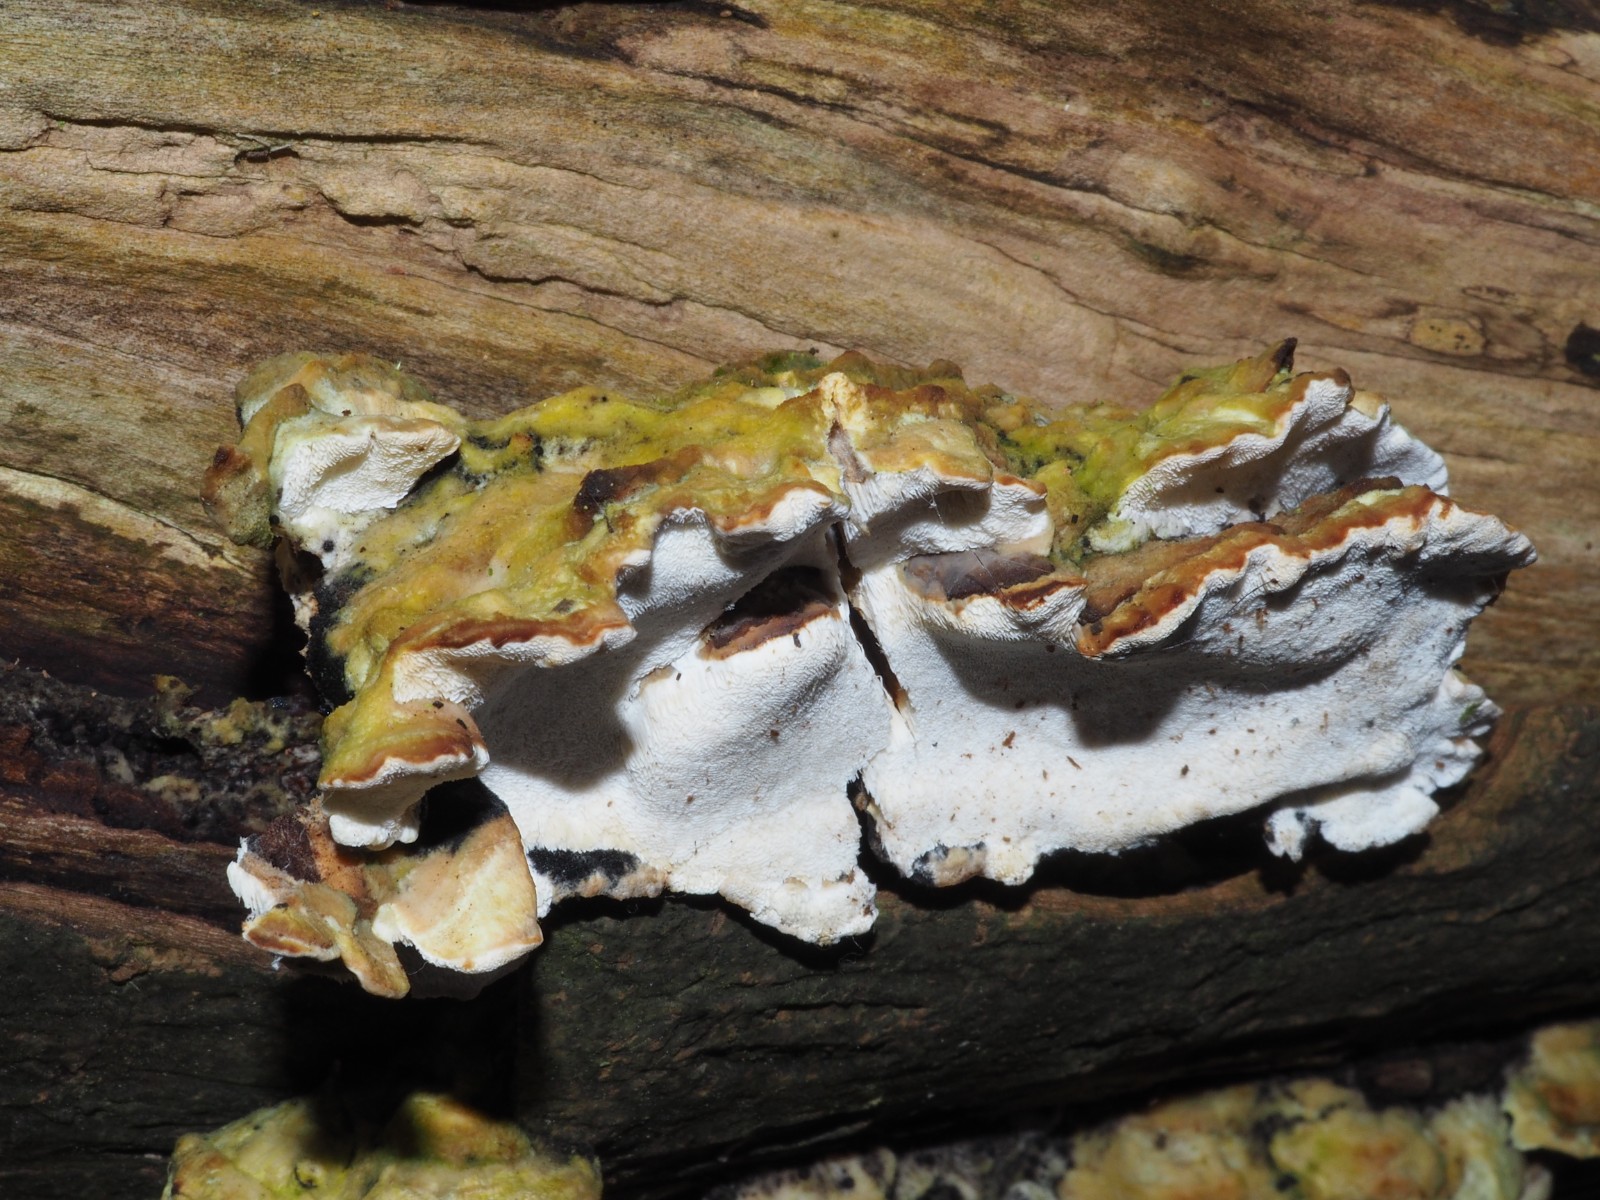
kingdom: Fungi
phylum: Basidiomycota
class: Agaricomycetes
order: Hymenochaetales
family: Oxyporaceae
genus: Oxyporus
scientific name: Oxyporus populinus
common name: sammenvokset trylleporesvamp
